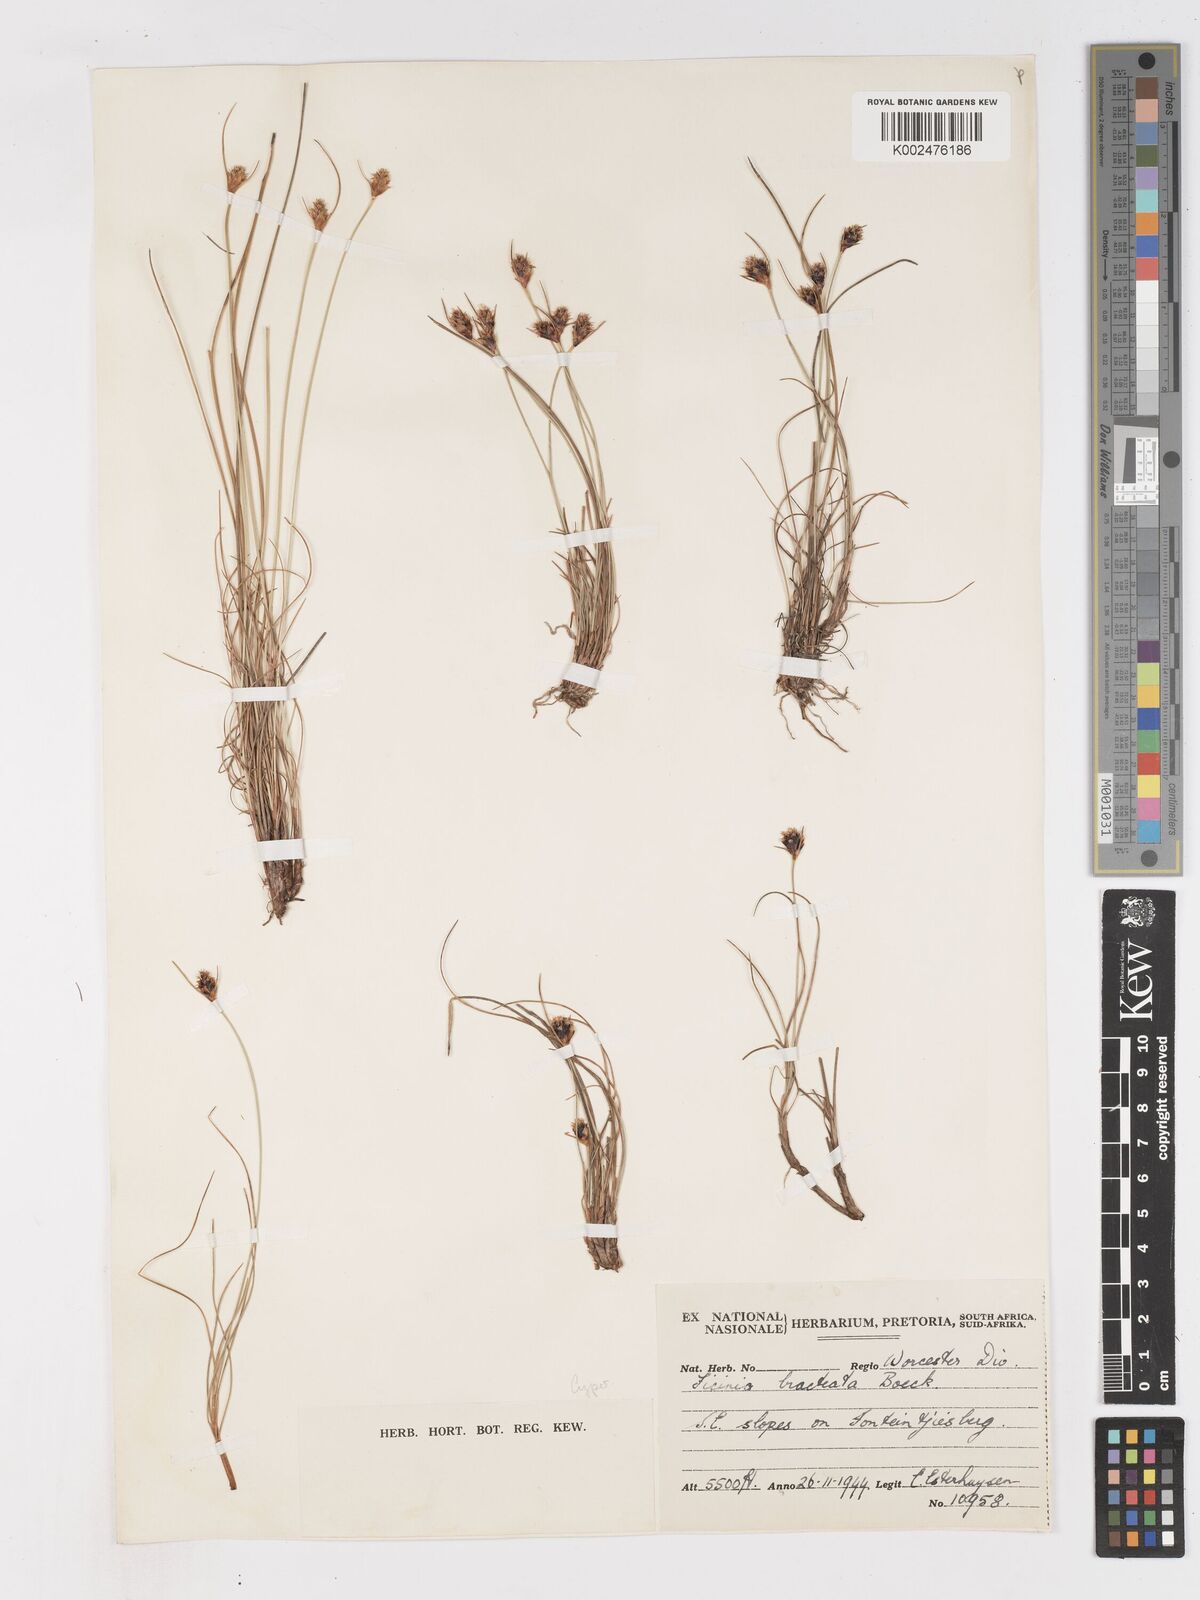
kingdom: Plantae
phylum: Tracheophyta
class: Liliopsida
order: Poales
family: Cyperaceae
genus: Ficinia
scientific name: Ficinia nigrescens
